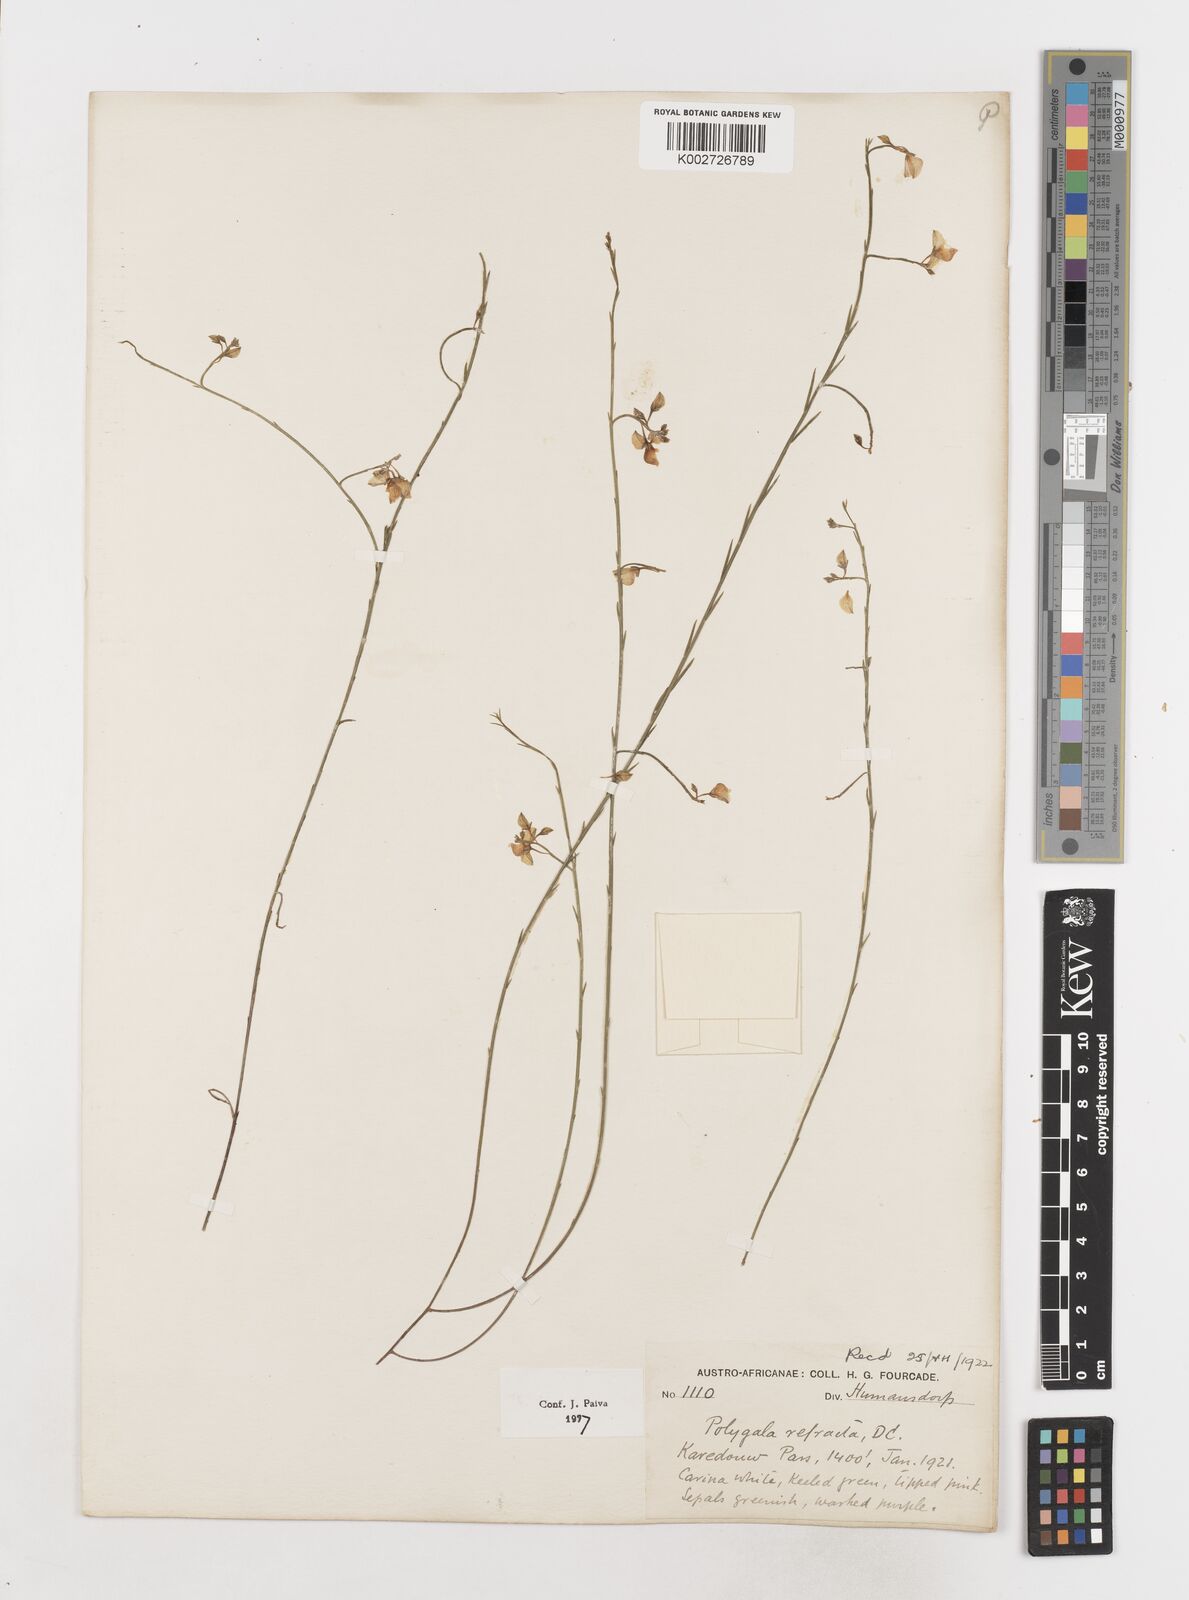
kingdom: Plantae
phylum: Tracheophyta
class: Magnoliopsida
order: Fabales
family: Polygalaceae
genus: Polygala
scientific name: Polygala refracta
